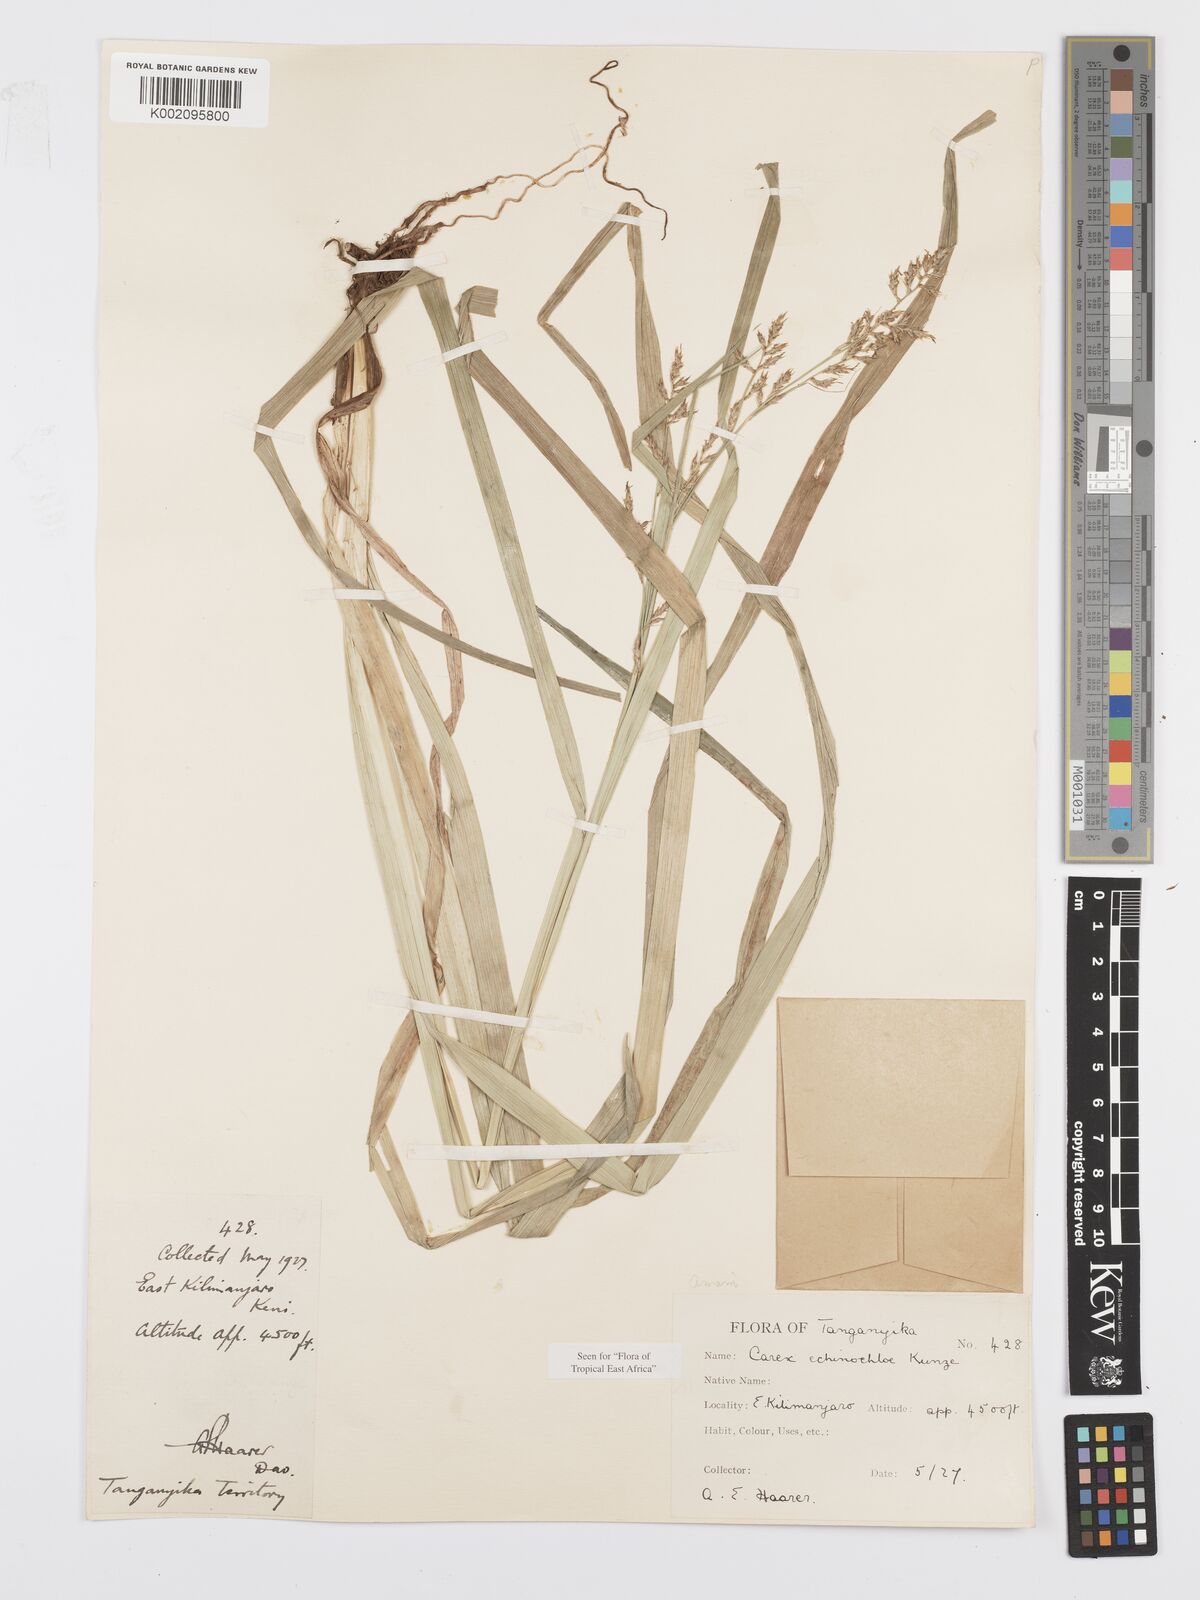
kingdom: Plantae
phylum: Tracheophyta
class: Liliopsida
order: Poales
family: Cyperaceae
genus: Carex
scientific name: Carex echinochloe
